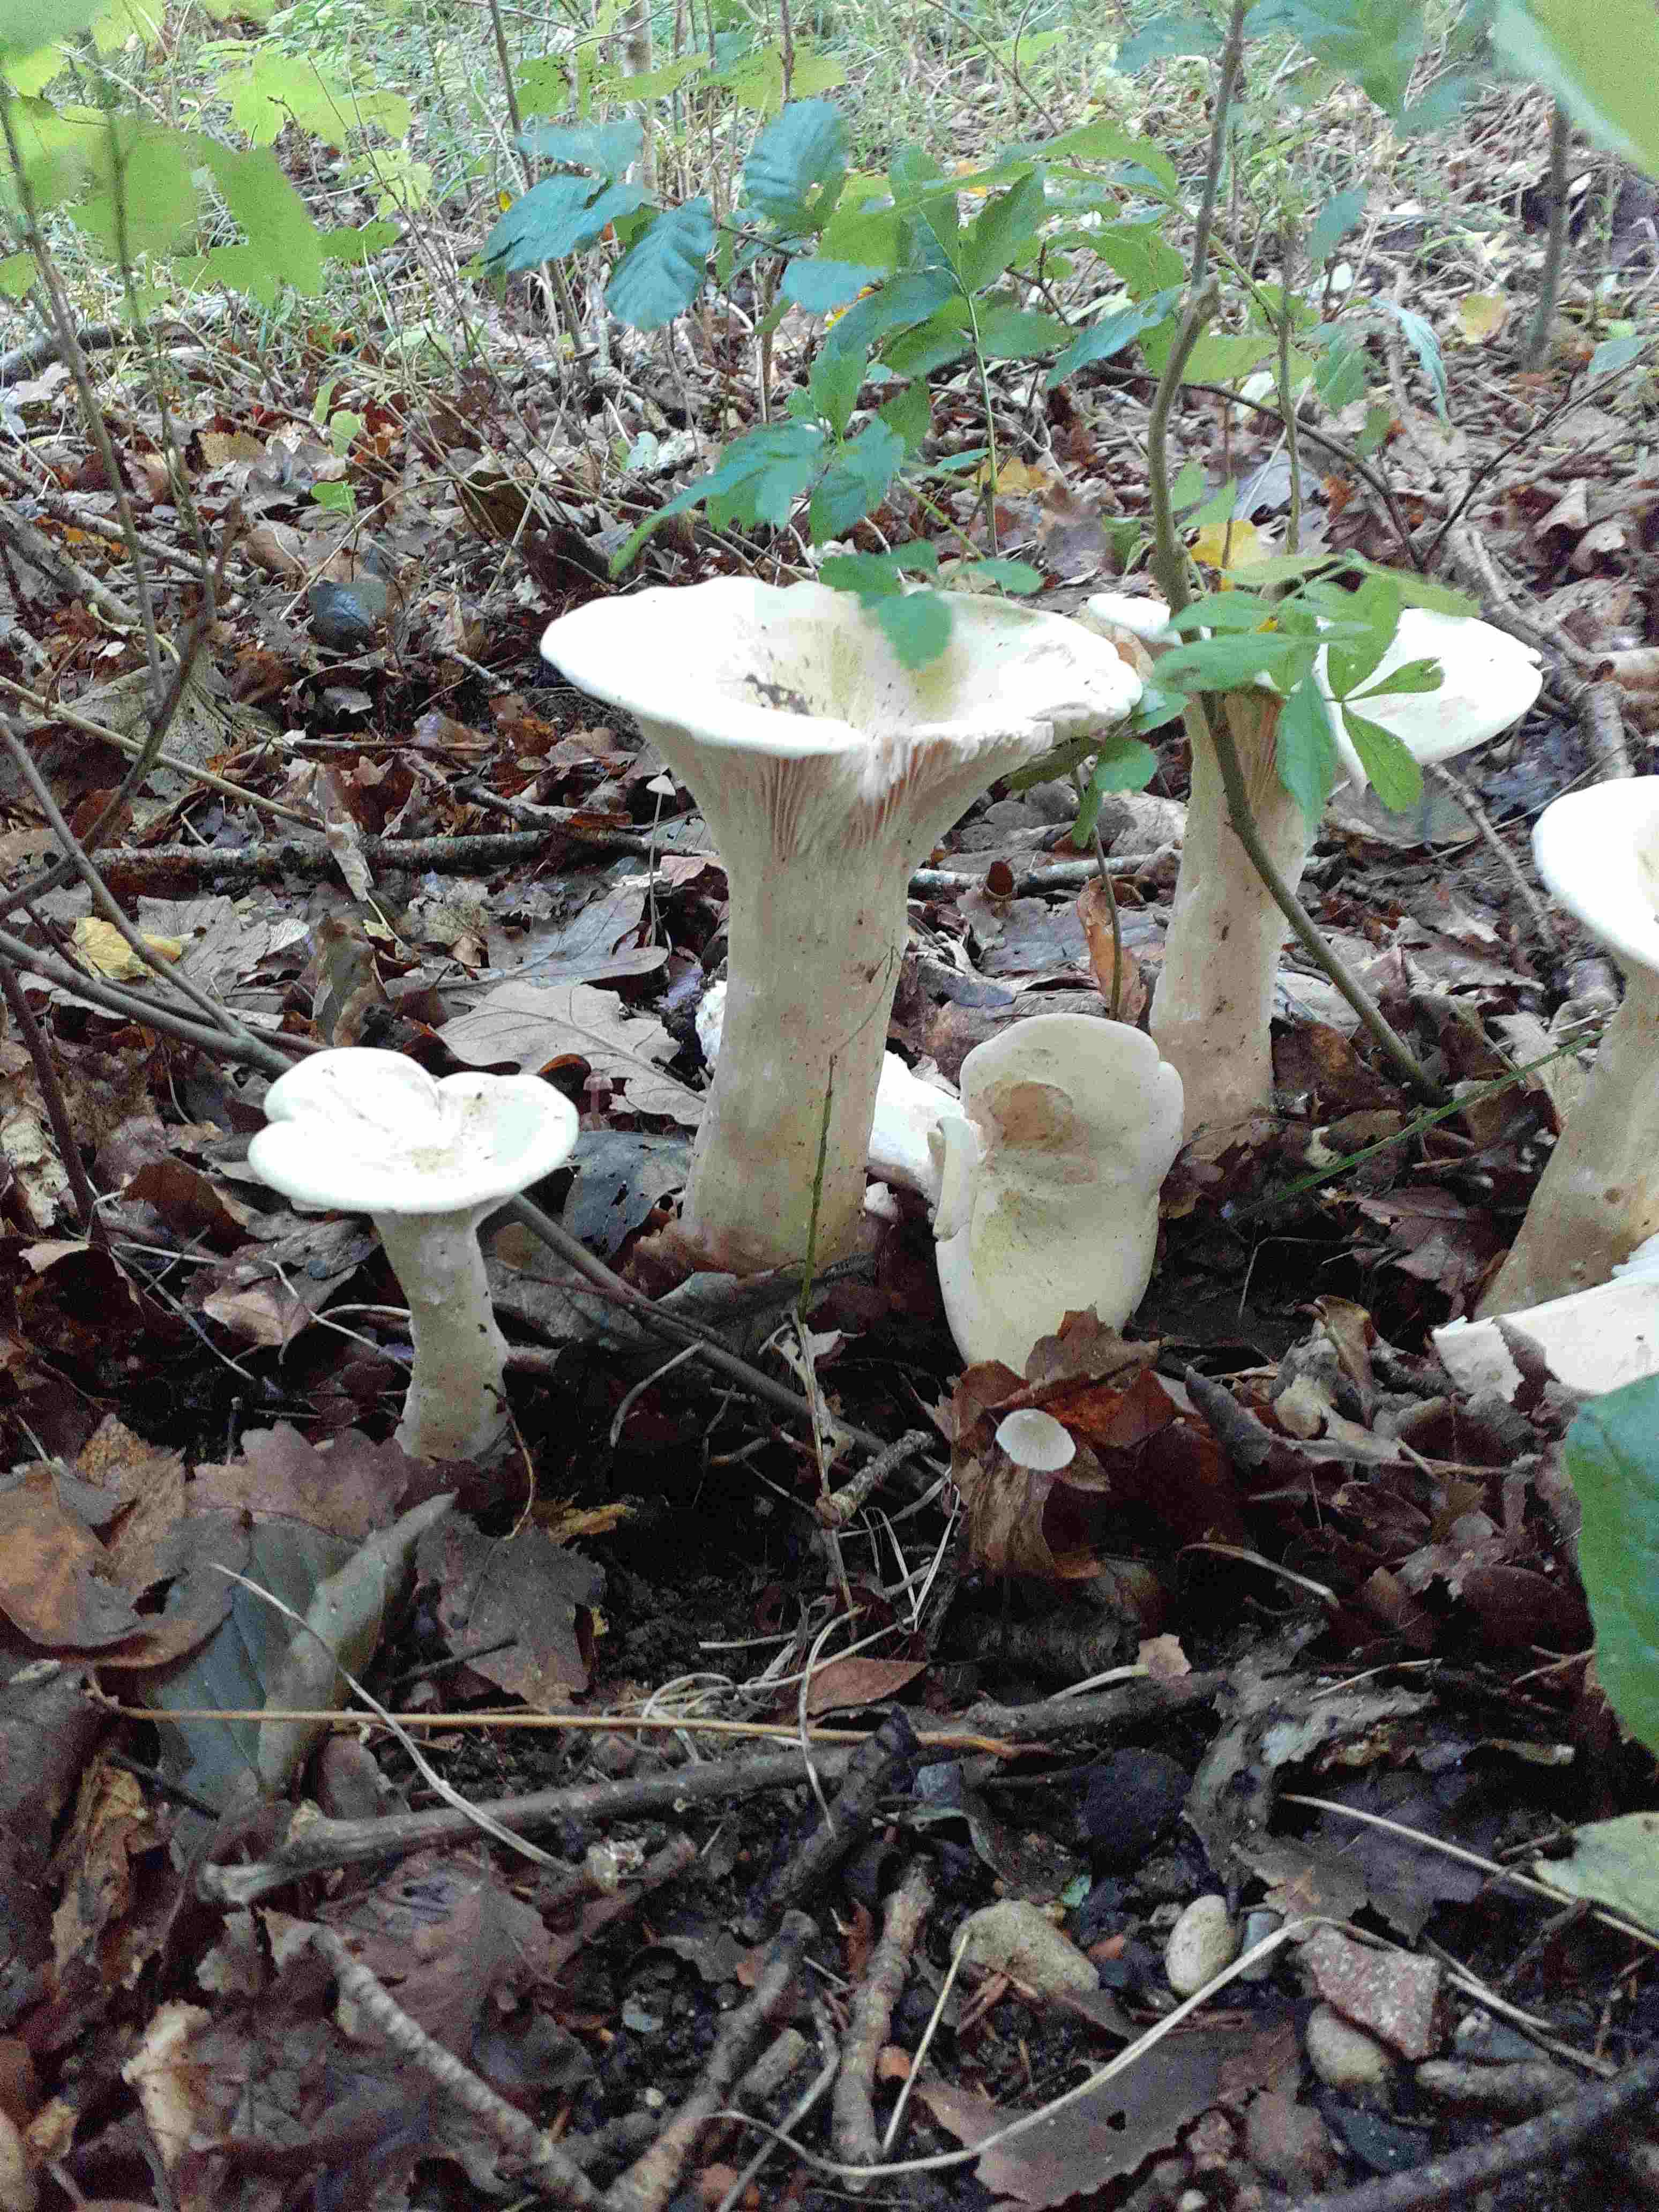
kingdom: Fungi
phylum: Basidiomycota
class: Agaricomycetes
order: Agaricales
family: Tricholomataceae
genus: Infundibulicybe
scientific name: Infundibulicybe geotropa
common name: stor tragthat
